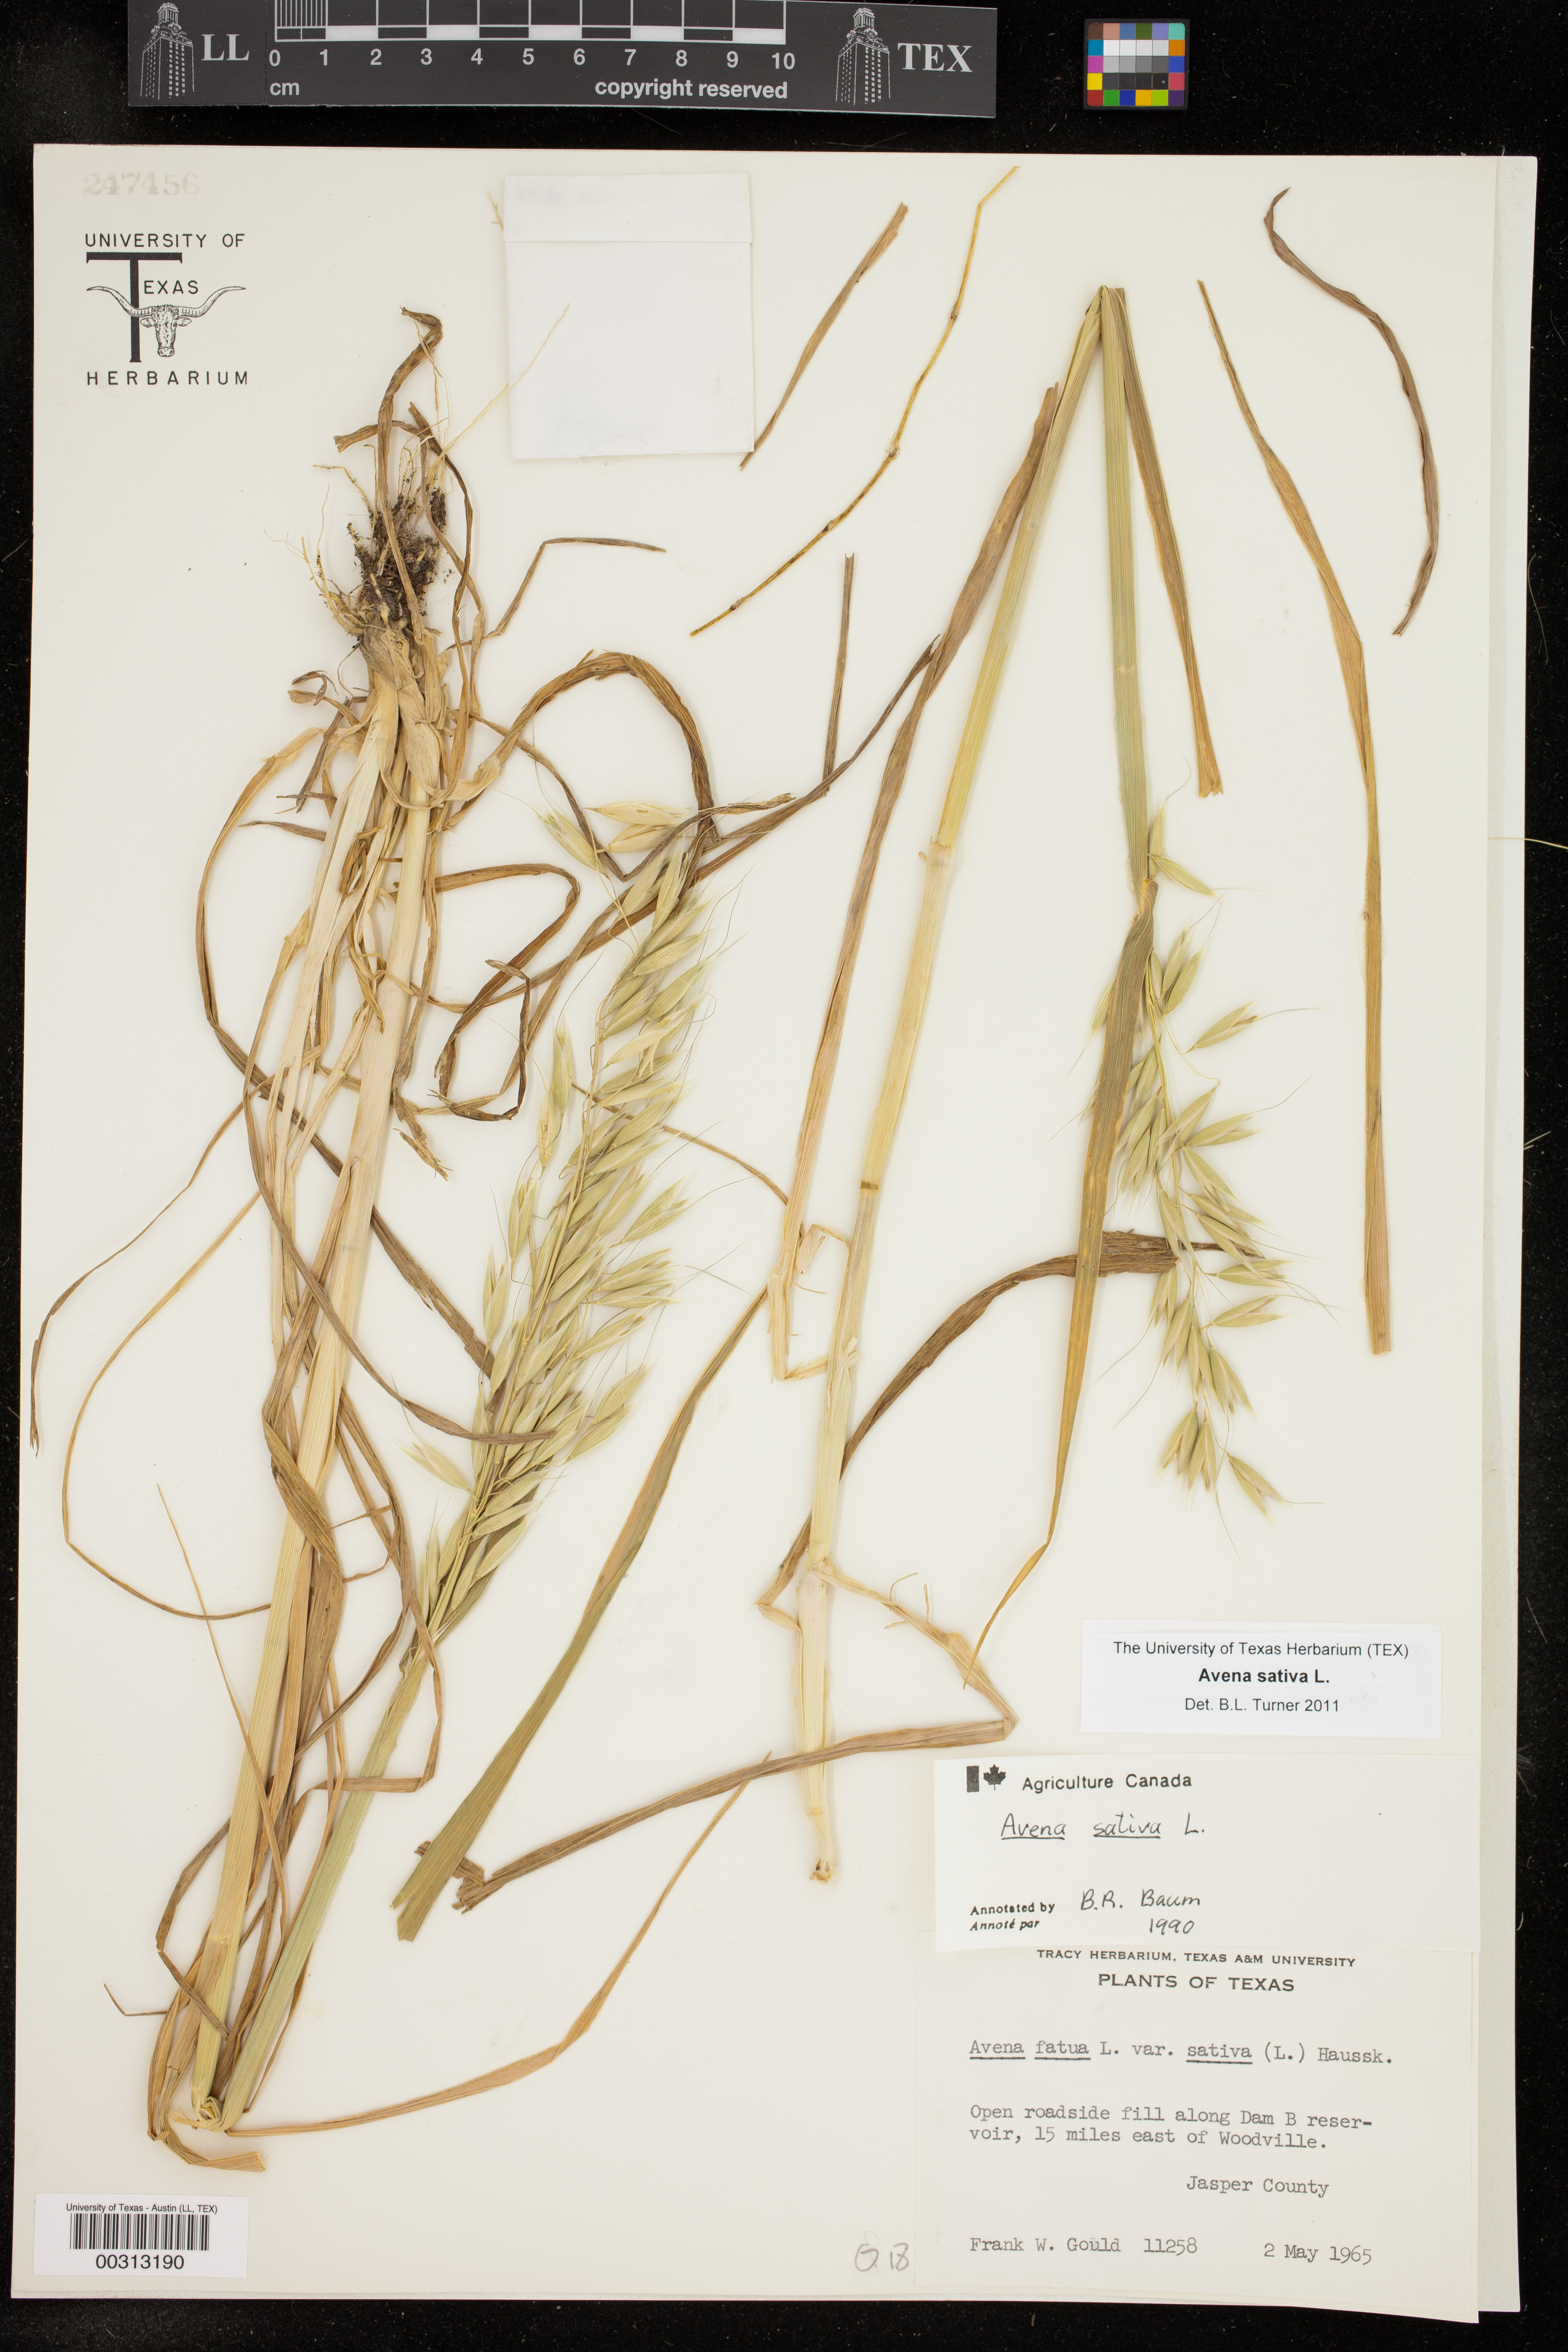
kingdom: Plantae
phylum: Tracheophyta
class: Liliopsida
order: Poales
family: Poaceae
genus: Avena
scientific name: Avena sativa
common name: Oat
